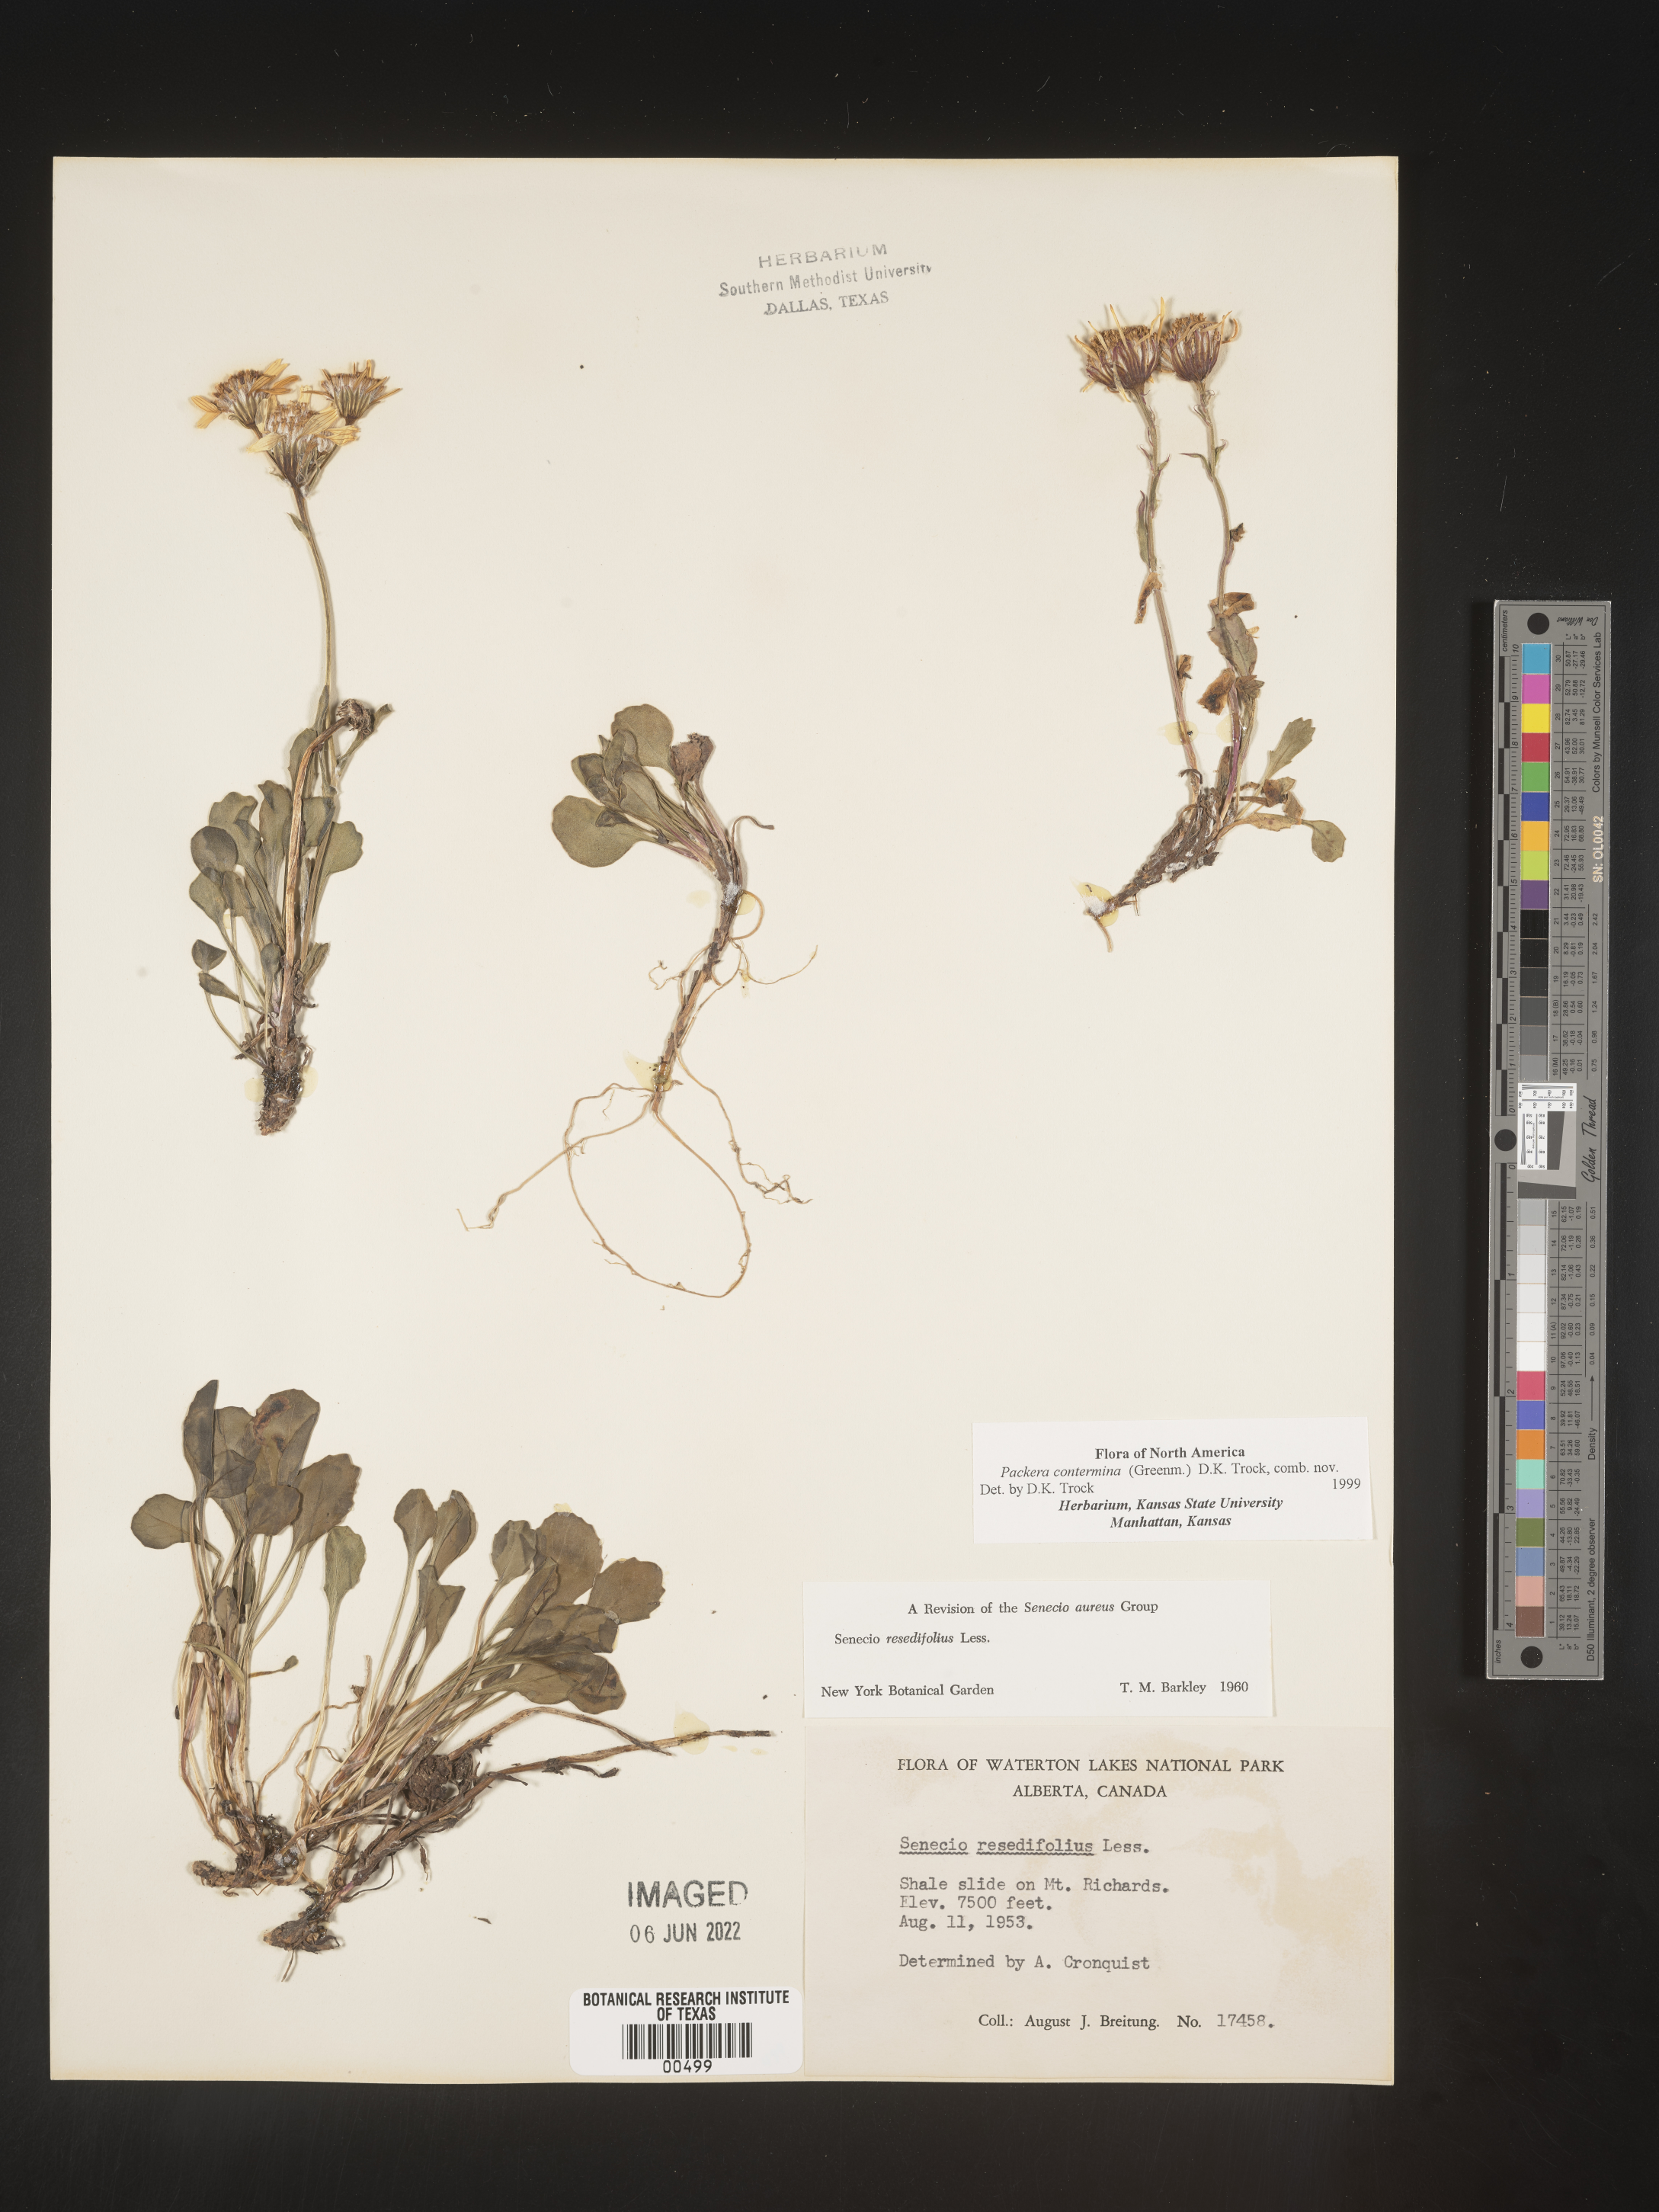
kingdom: Plantae
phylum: Tracheophyta
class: Magnoliopsida
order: Asterales
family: Asteraceae
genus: Packera
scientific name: Packera
